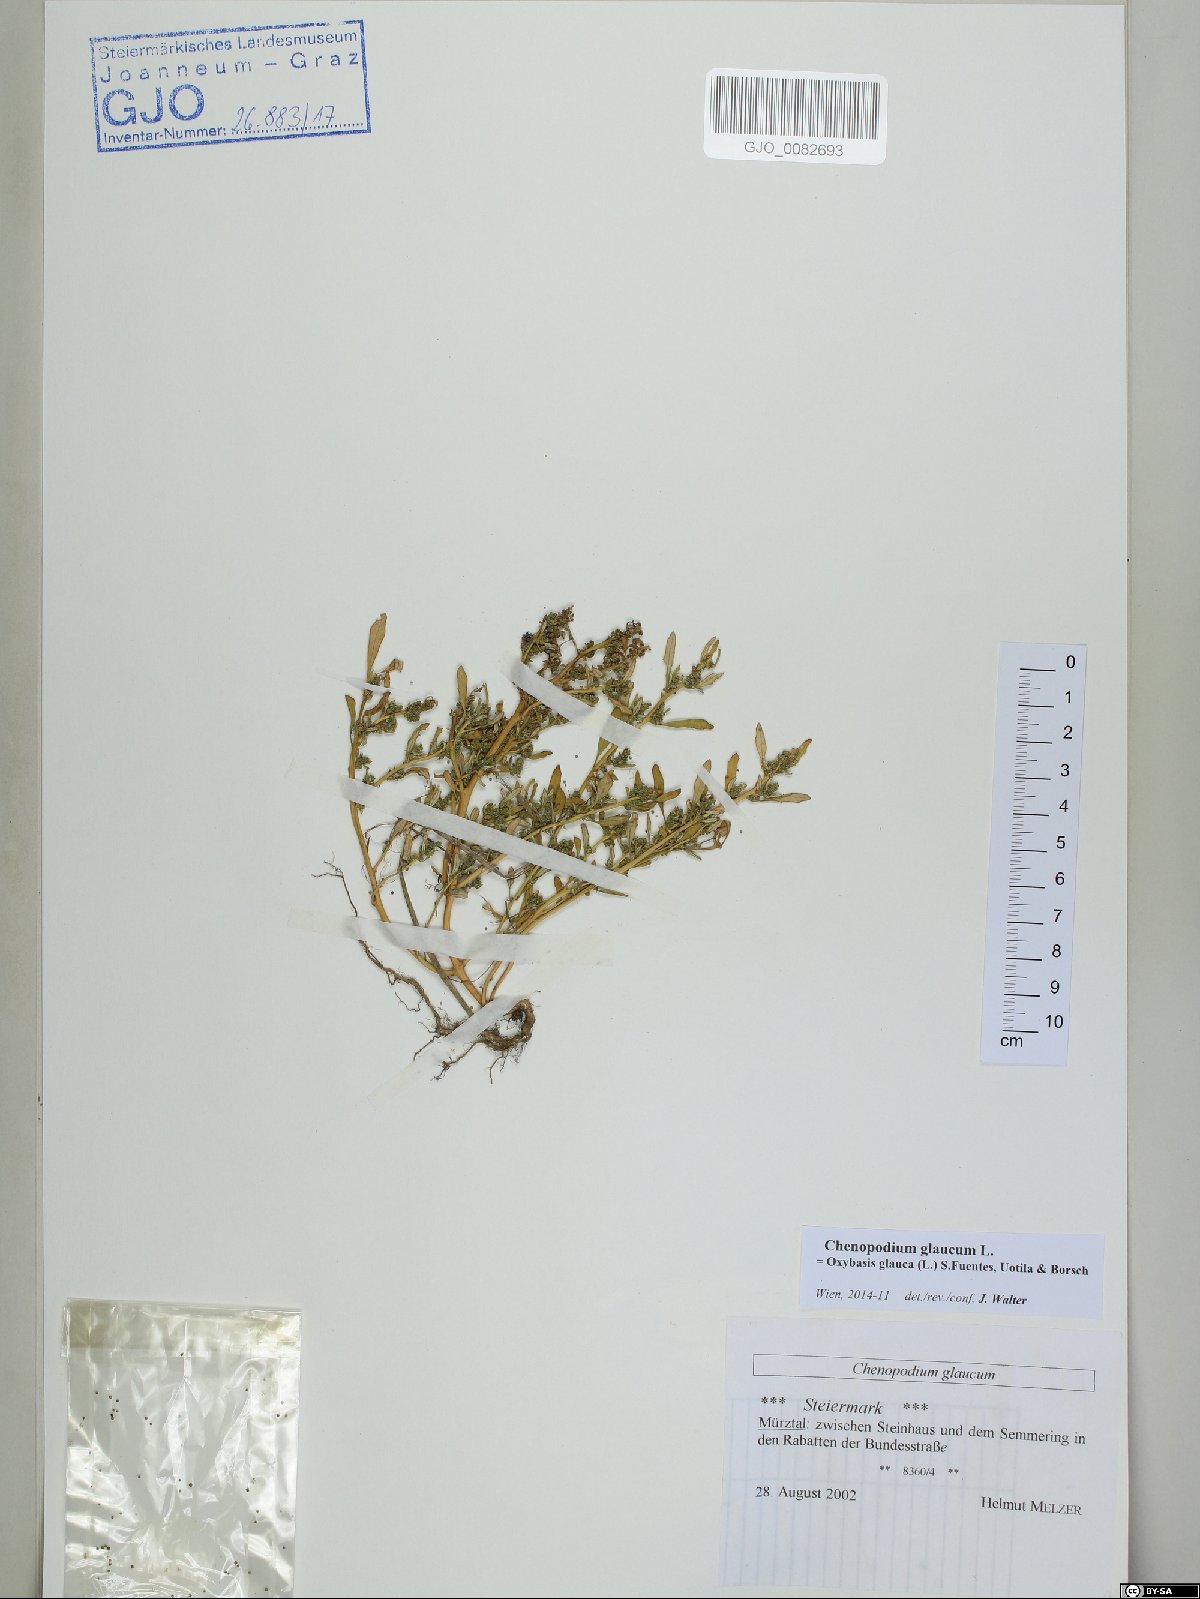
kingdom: Plantae
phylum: Tracheophyta
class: Magnoliopsida
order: Caryophyllales
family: Amaranthaceae
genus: Oxybasis
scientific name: Oxybasis glauca
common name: Glaucous goosefoot
